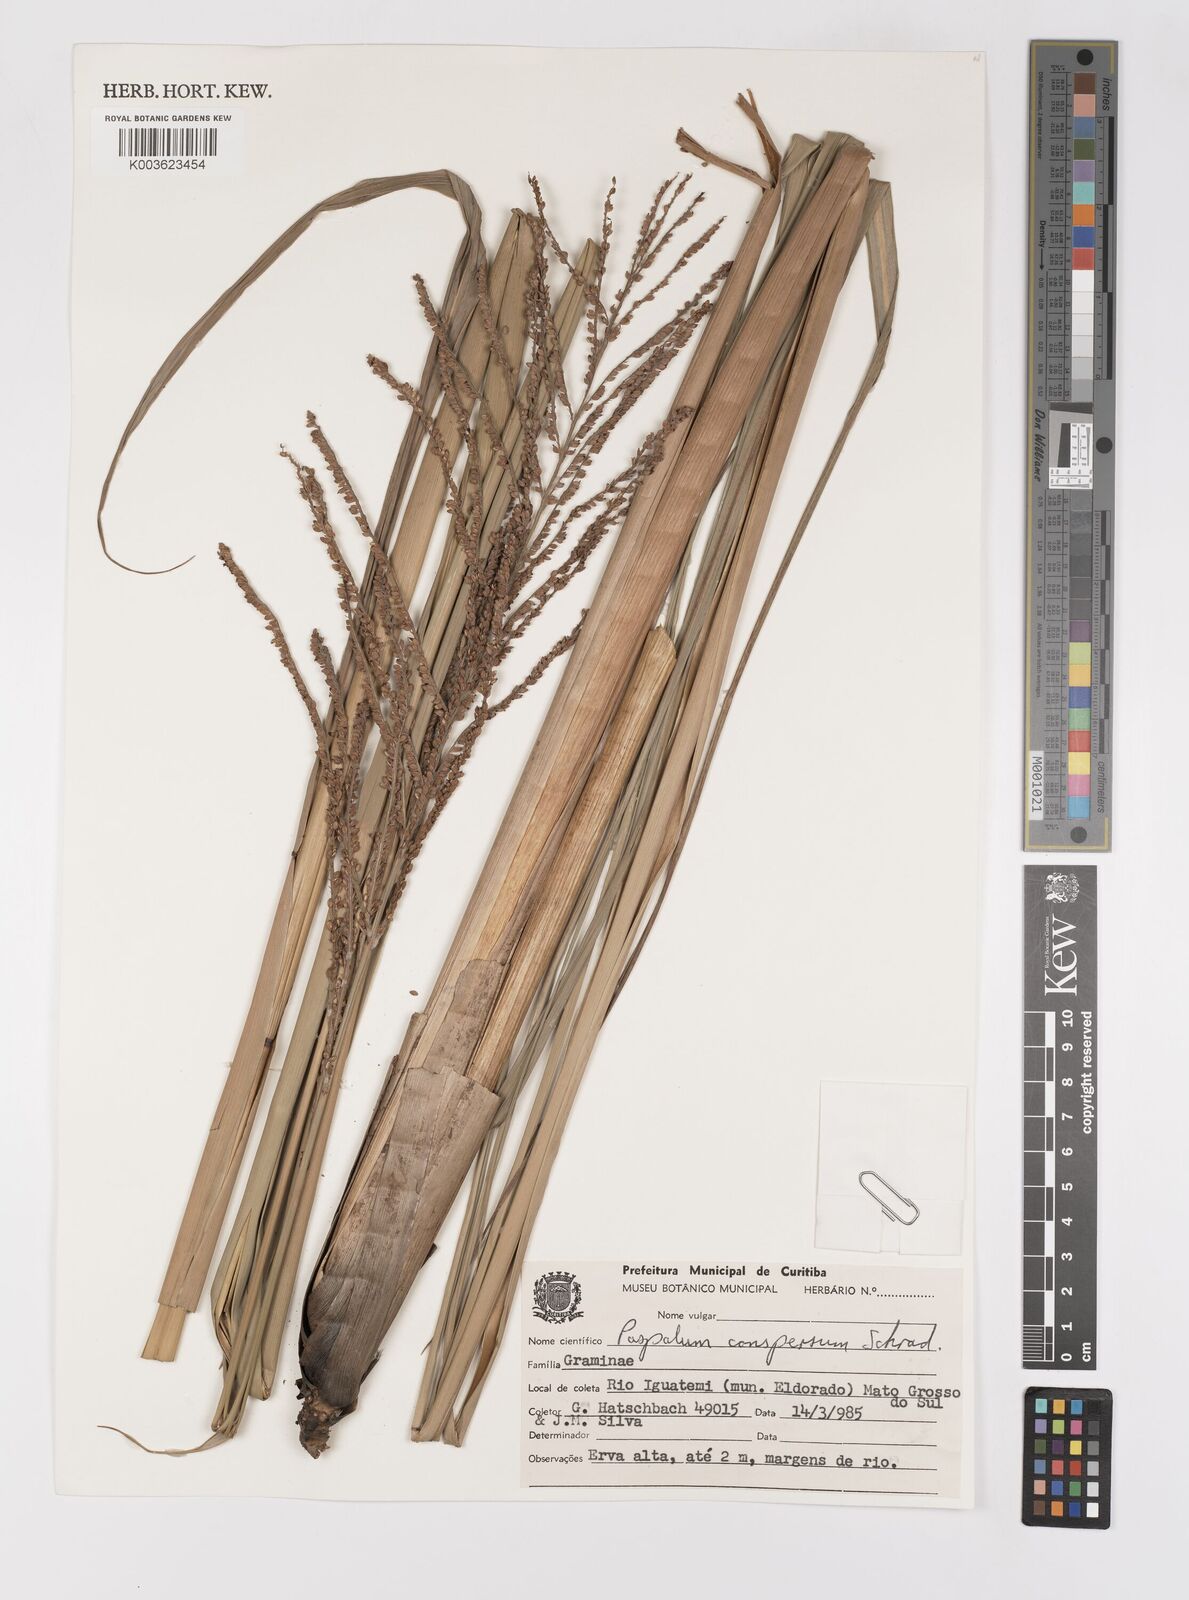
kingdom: Plantae
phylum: Tracheophyta
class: Liliopsida
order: Poales
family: Poaceae
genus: Paspalum
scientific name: Paspalum conspersum
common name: Scattered paspalum
